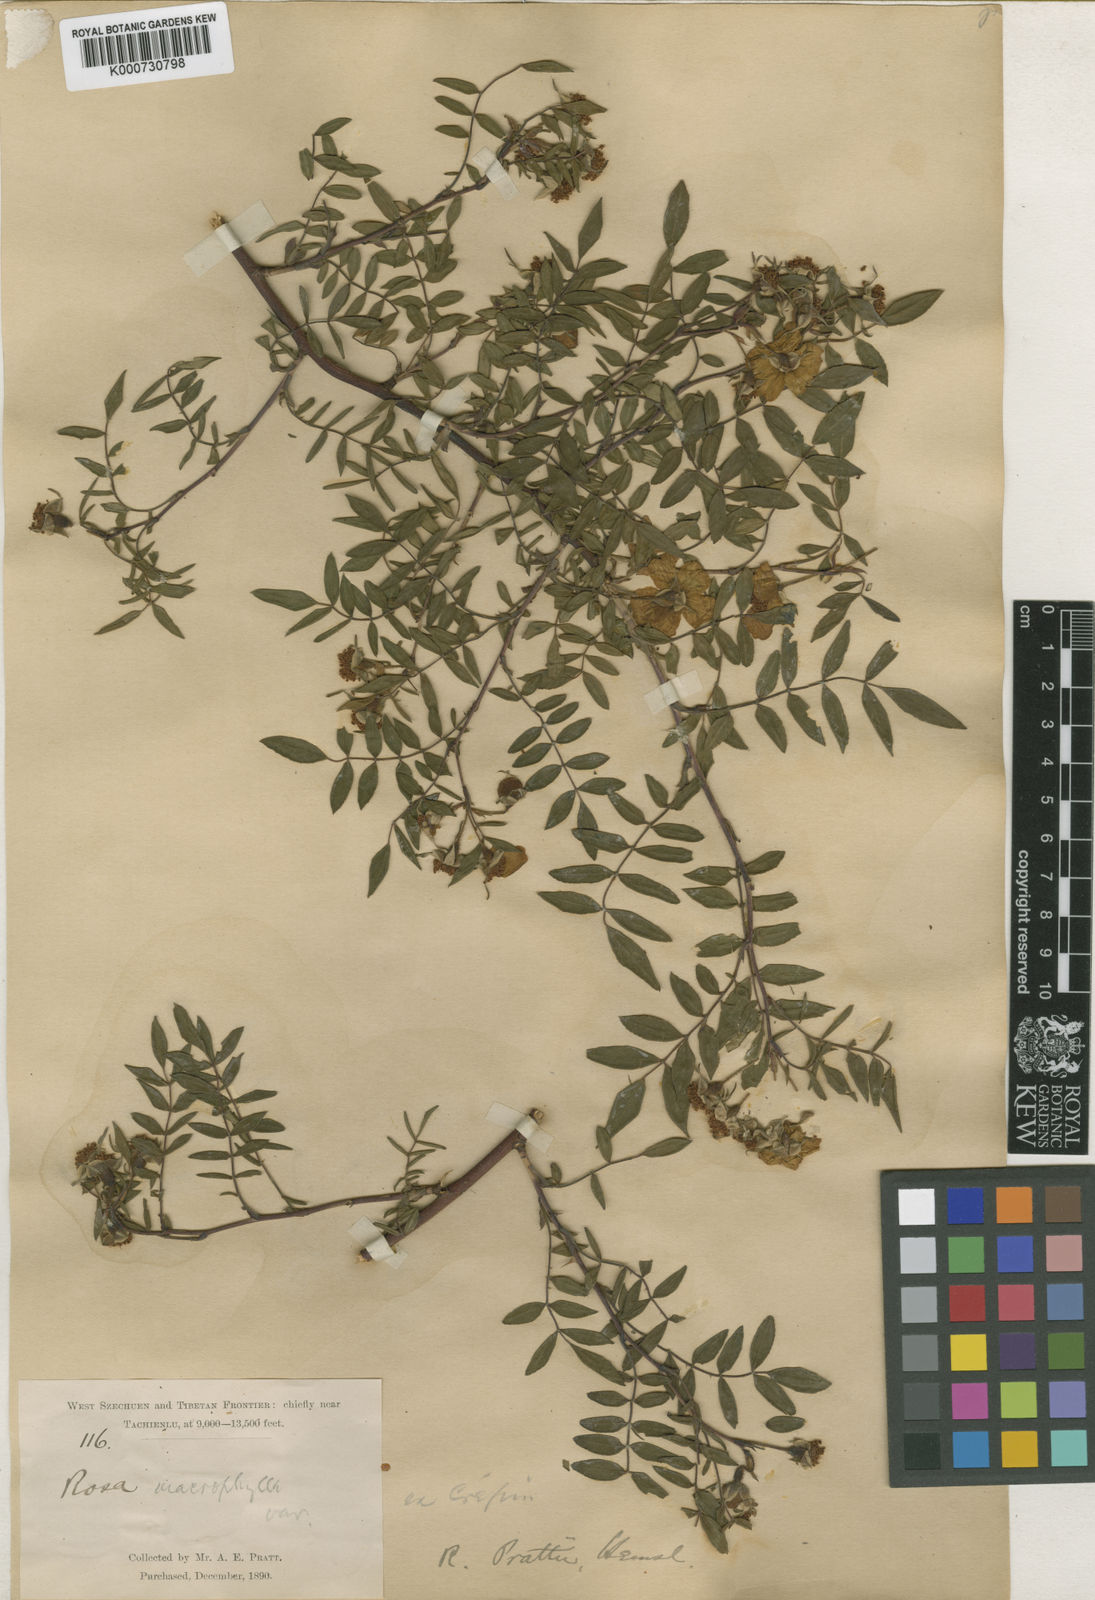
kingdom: Plantae
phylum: Tracheophyta
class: Magnoliopsida
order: Rosales
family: Rosaceae
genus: Rosa
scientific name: Rosa prattii
